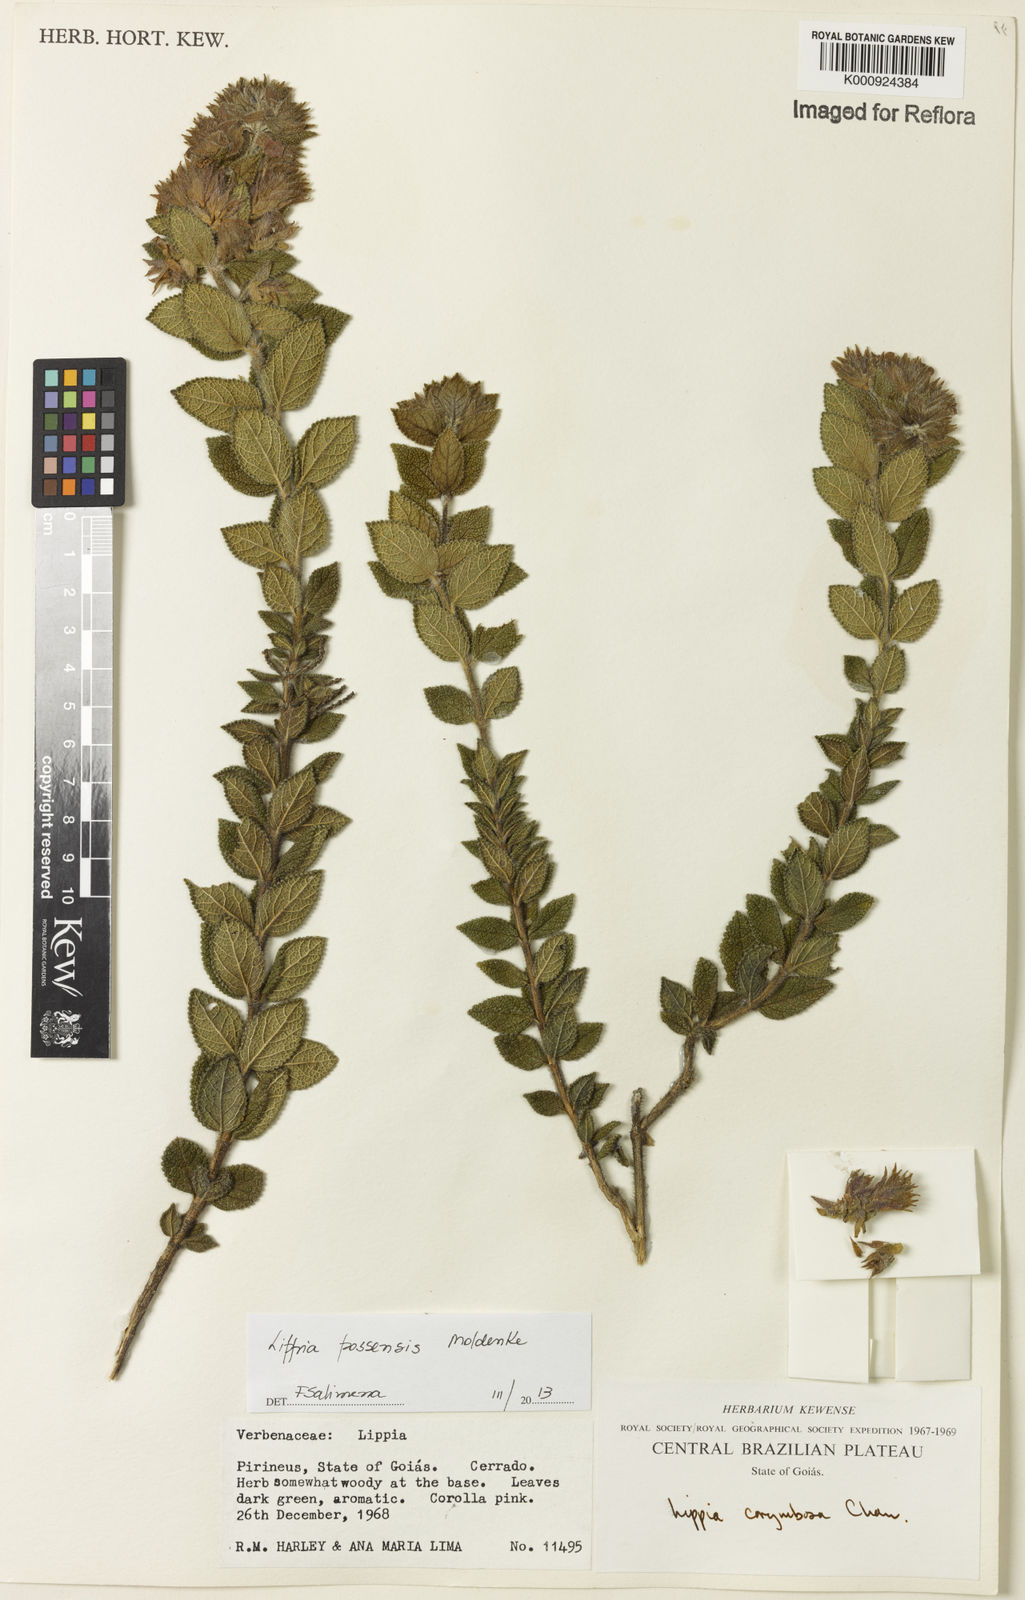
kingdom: Plantae
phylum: Tracheophyta
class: Magnoliopsida
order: Lamiales
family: Verbenaceae
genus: Lippia
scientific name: Lippia possensis
